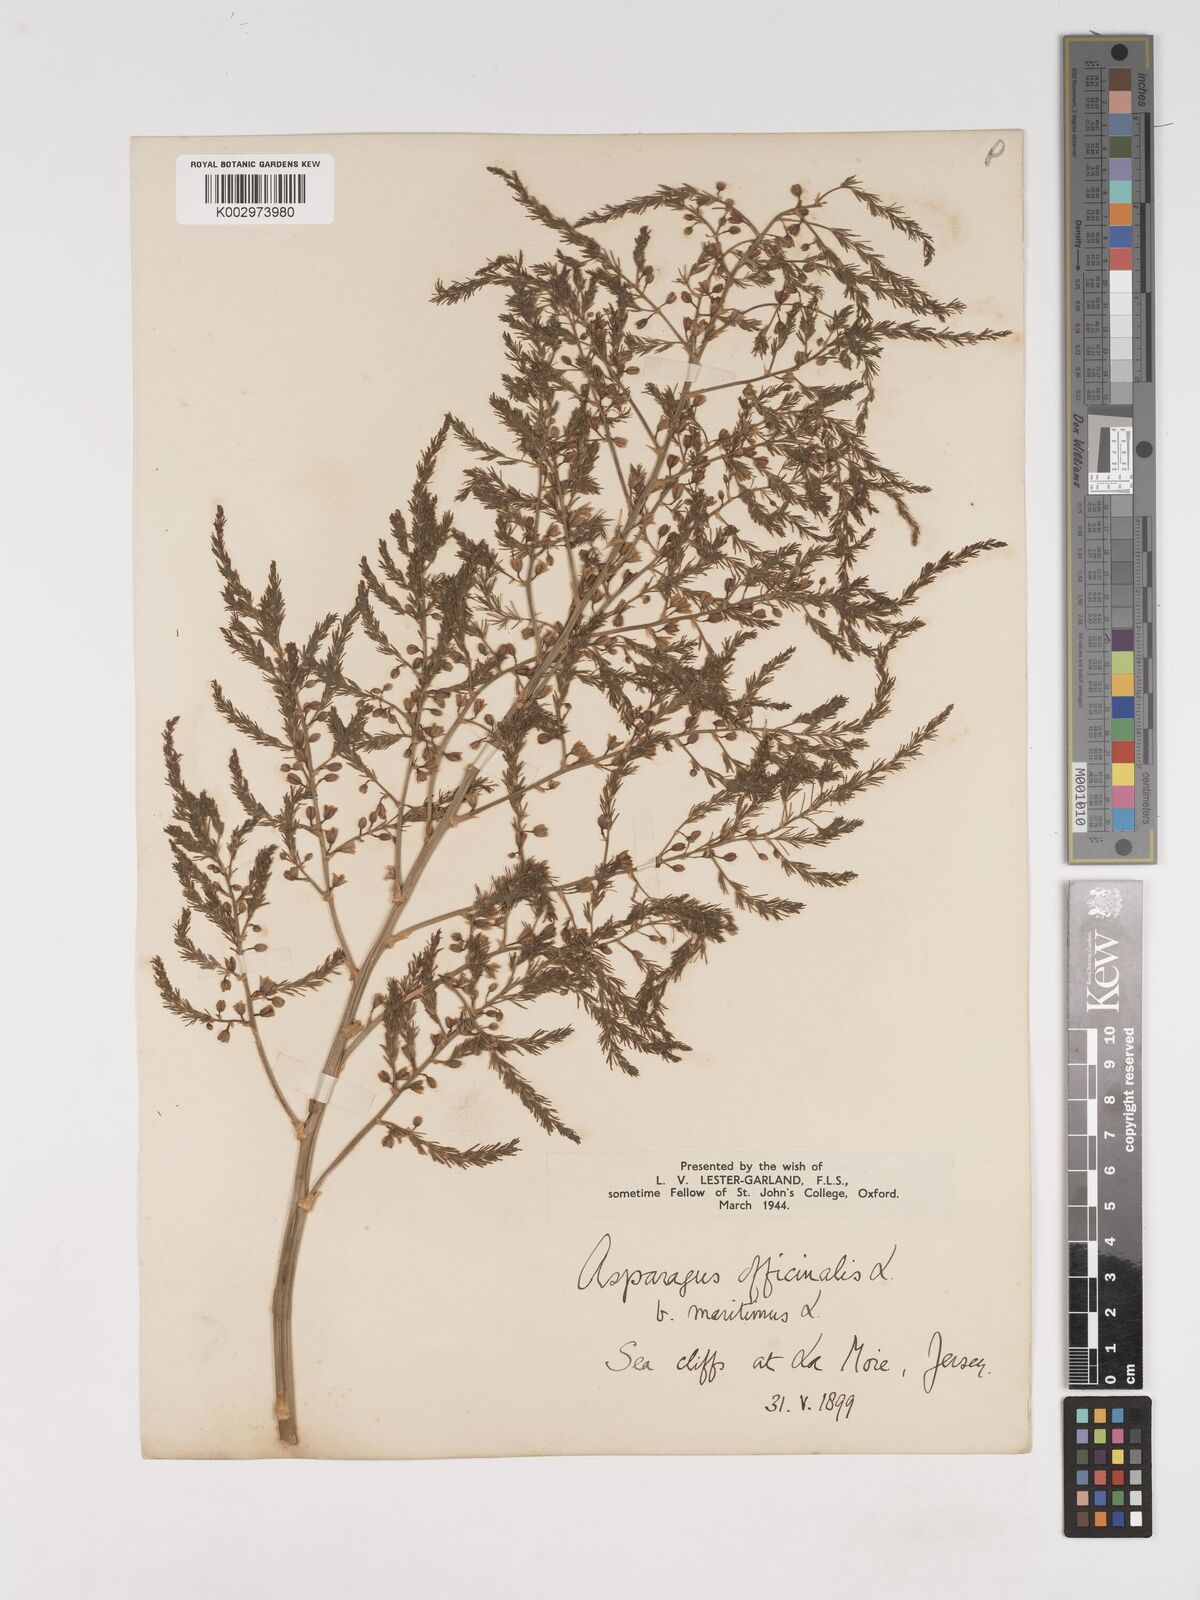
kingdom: Plantae
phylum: Tracheophyta
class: Liliopsida
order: Asparagales
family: Asparagaceae
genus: Asparagus
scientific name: Asparagus maritimus
